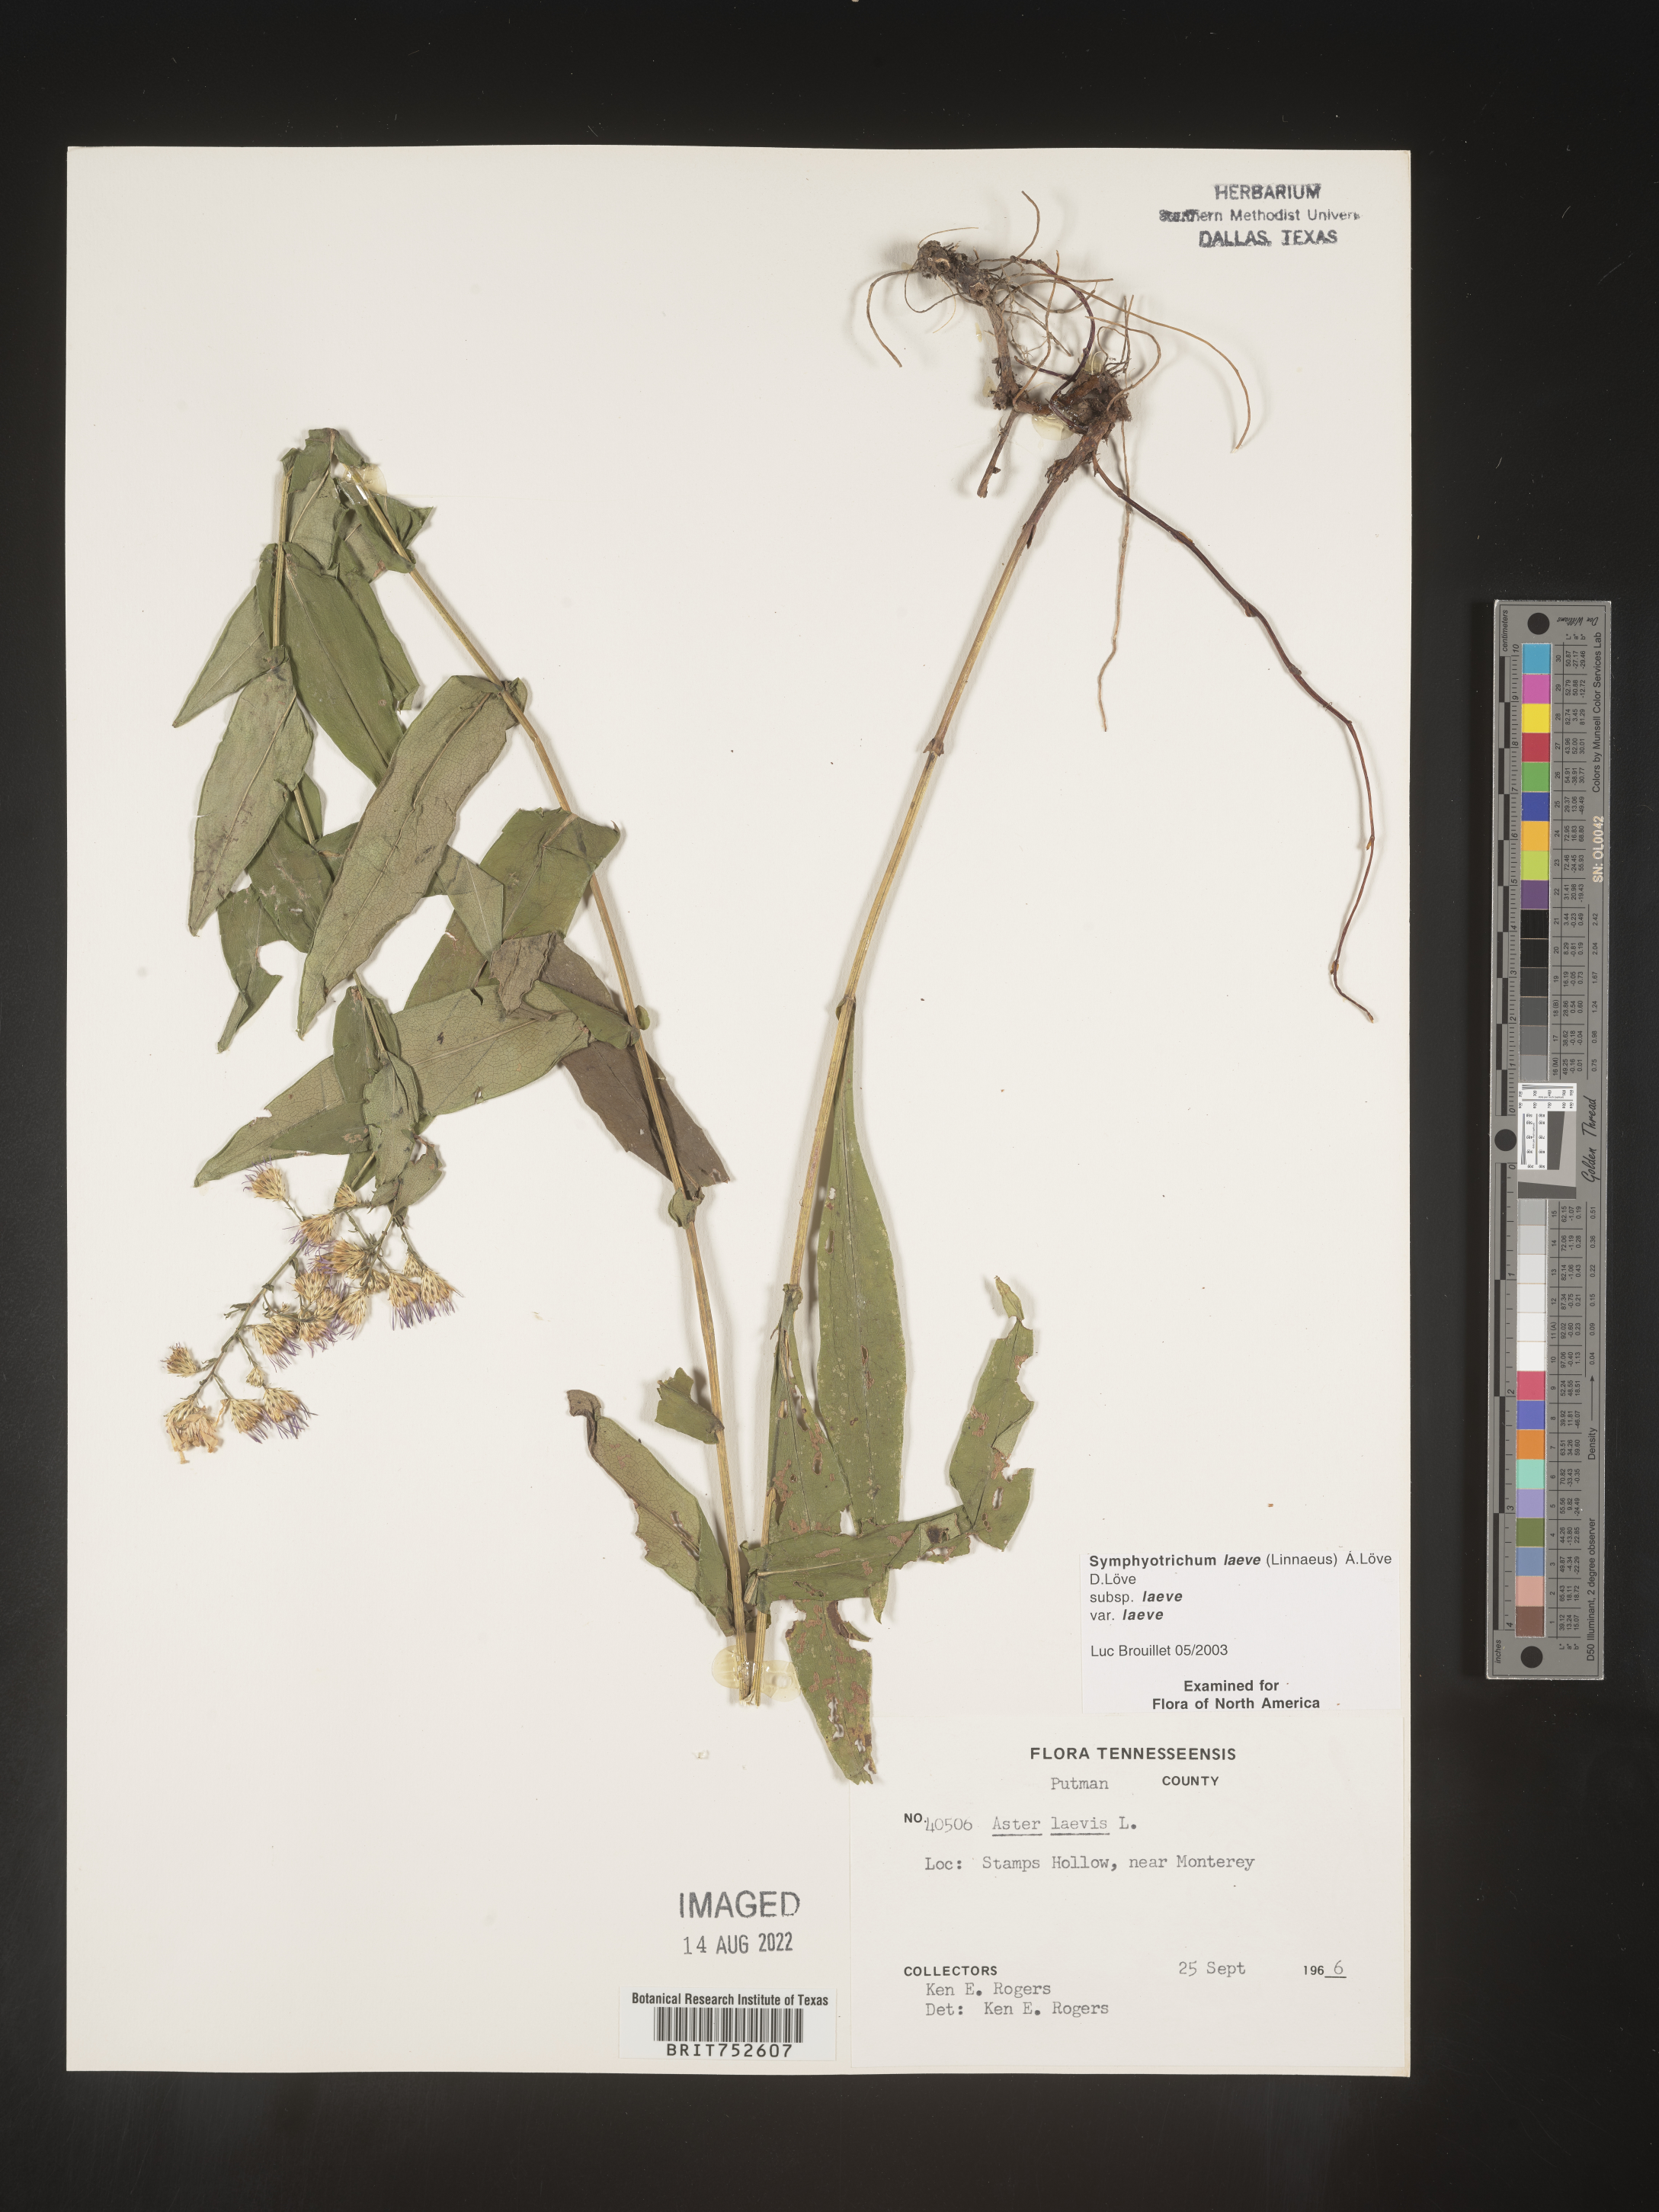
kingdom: Plantae
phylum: Tracheophyta
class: Magnoliopsida
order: Asterales
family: Asteraceae
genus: Symphyotrichum
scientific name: Symphyotrichum laeve
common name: Glaucous aster
